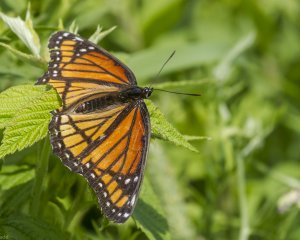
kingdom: Animalia
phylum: Arthropoda
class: Insecta
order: Lepidoptera
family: Nymphalidae
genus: Limenitis
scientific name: Limenitis archippus
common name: Viceroy
